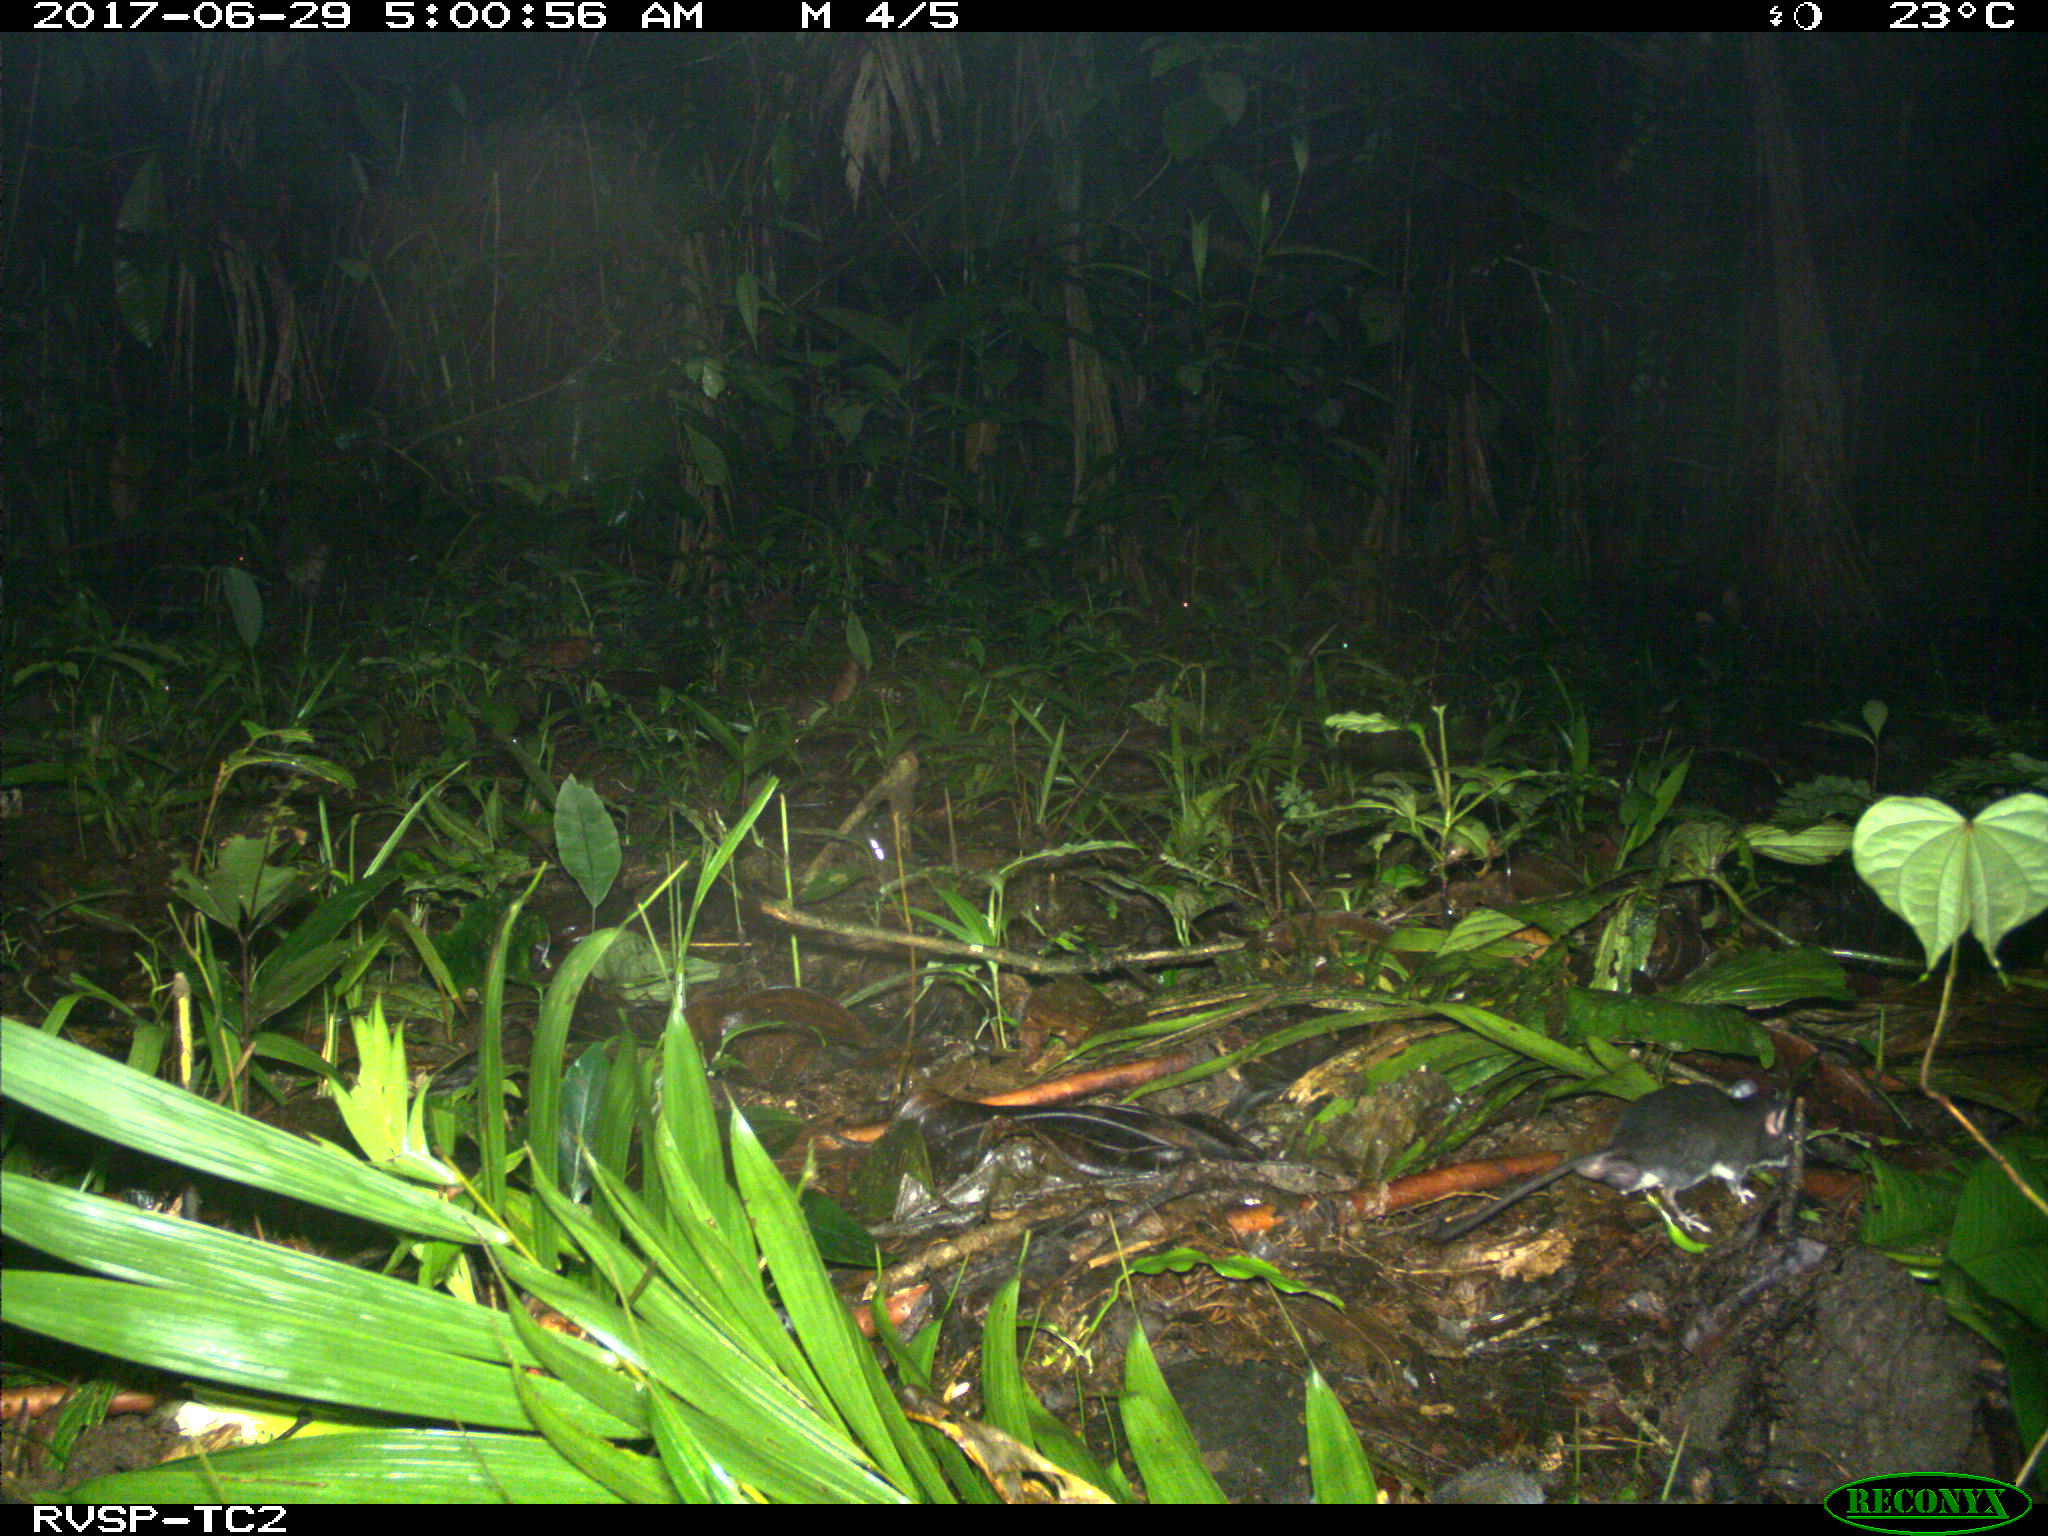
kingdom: Animalia
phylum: Chordata
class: Mammalia
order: Rodentia
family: Echimyidae
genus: Proechimys
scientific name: Proechimys
